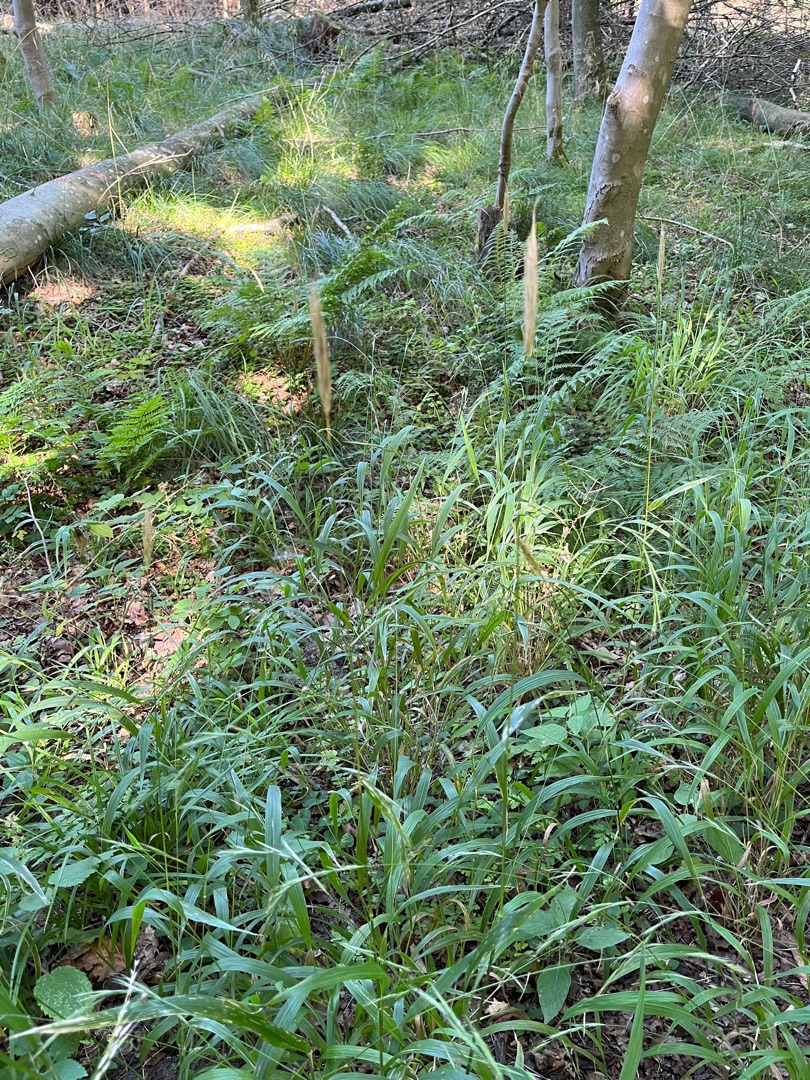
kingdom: Plantae
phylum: Tracheophyta
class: Liliopsida
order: Poales
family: Poaceae
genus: Hordelymus
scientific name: Hordelymus europaeus
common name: Skovbyg
